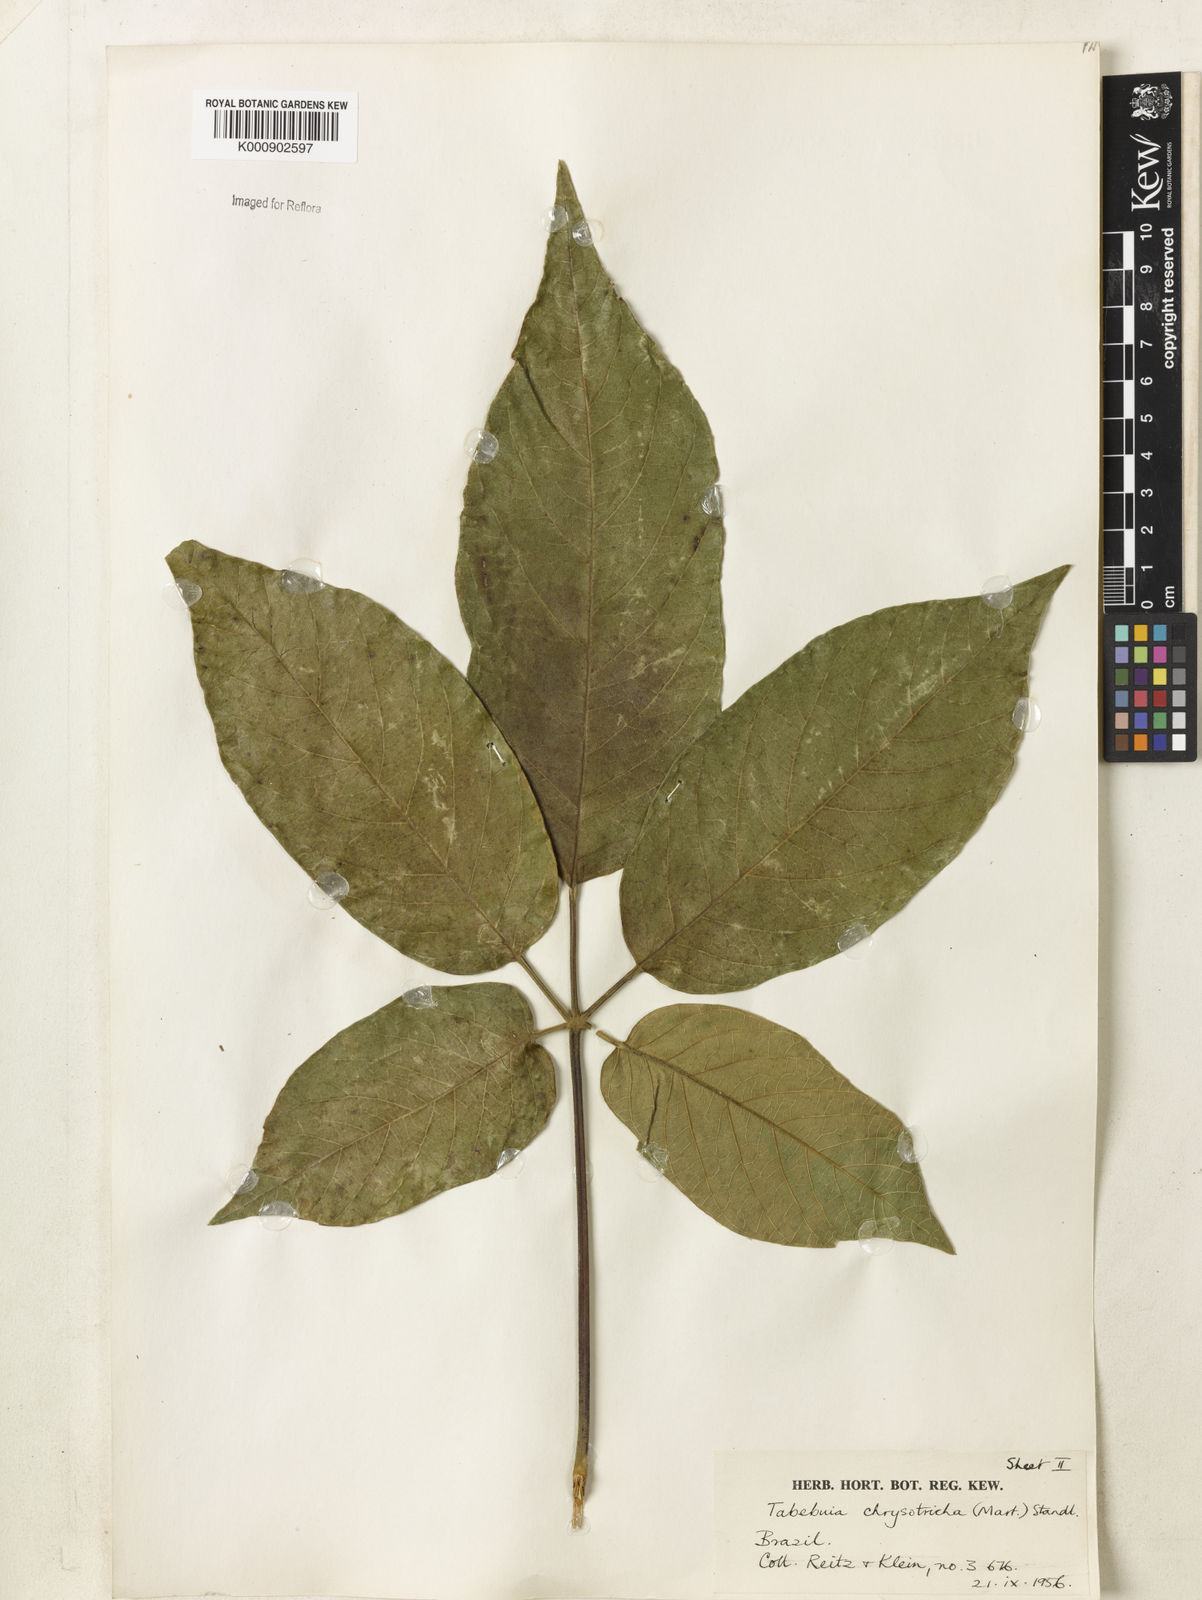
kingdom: Plantae
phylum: Tracheophyta
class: Magnoliopsida
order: Lamiales
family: Bignoniaceae
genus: Handroanthus
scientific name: Handroanthus chrysotrichus
